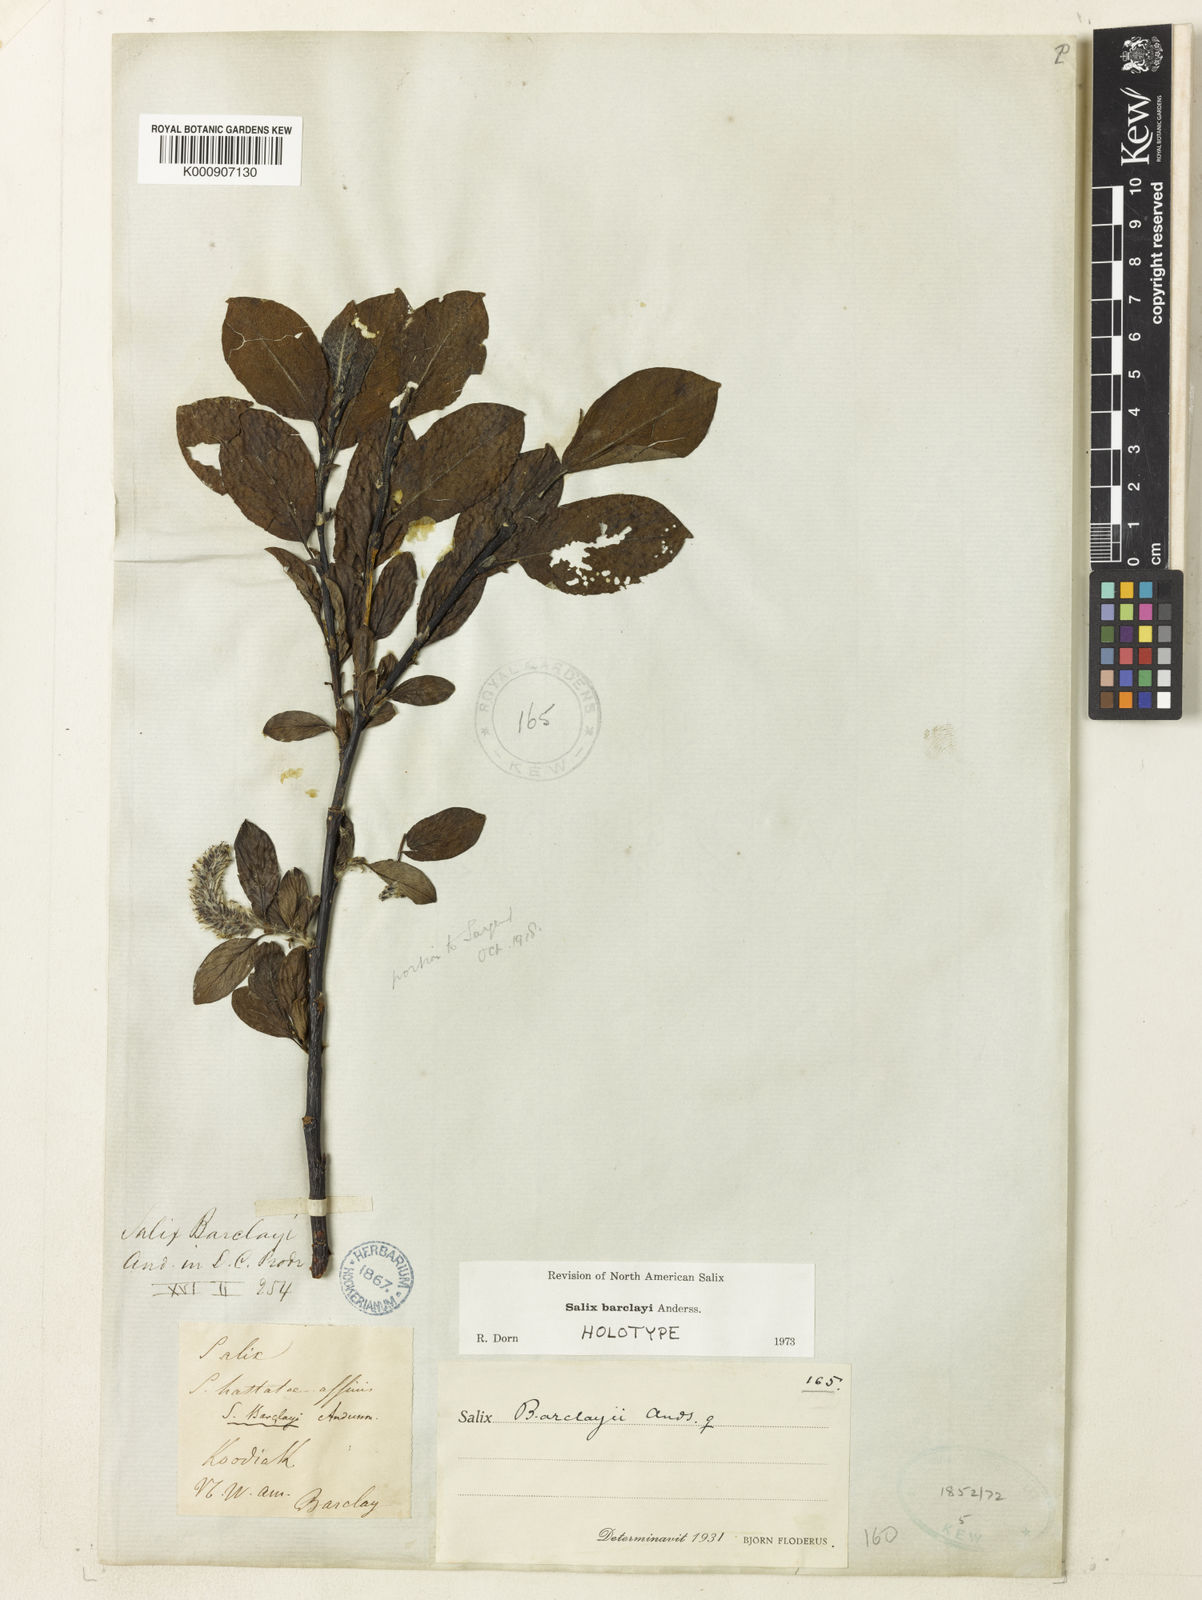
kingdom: Plantae
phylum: Tracheophyta
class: Magnoliopsida
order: Malpighiales
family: Salicaceae
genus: Salix
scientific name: Salix barclayi
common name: Mountain willow
